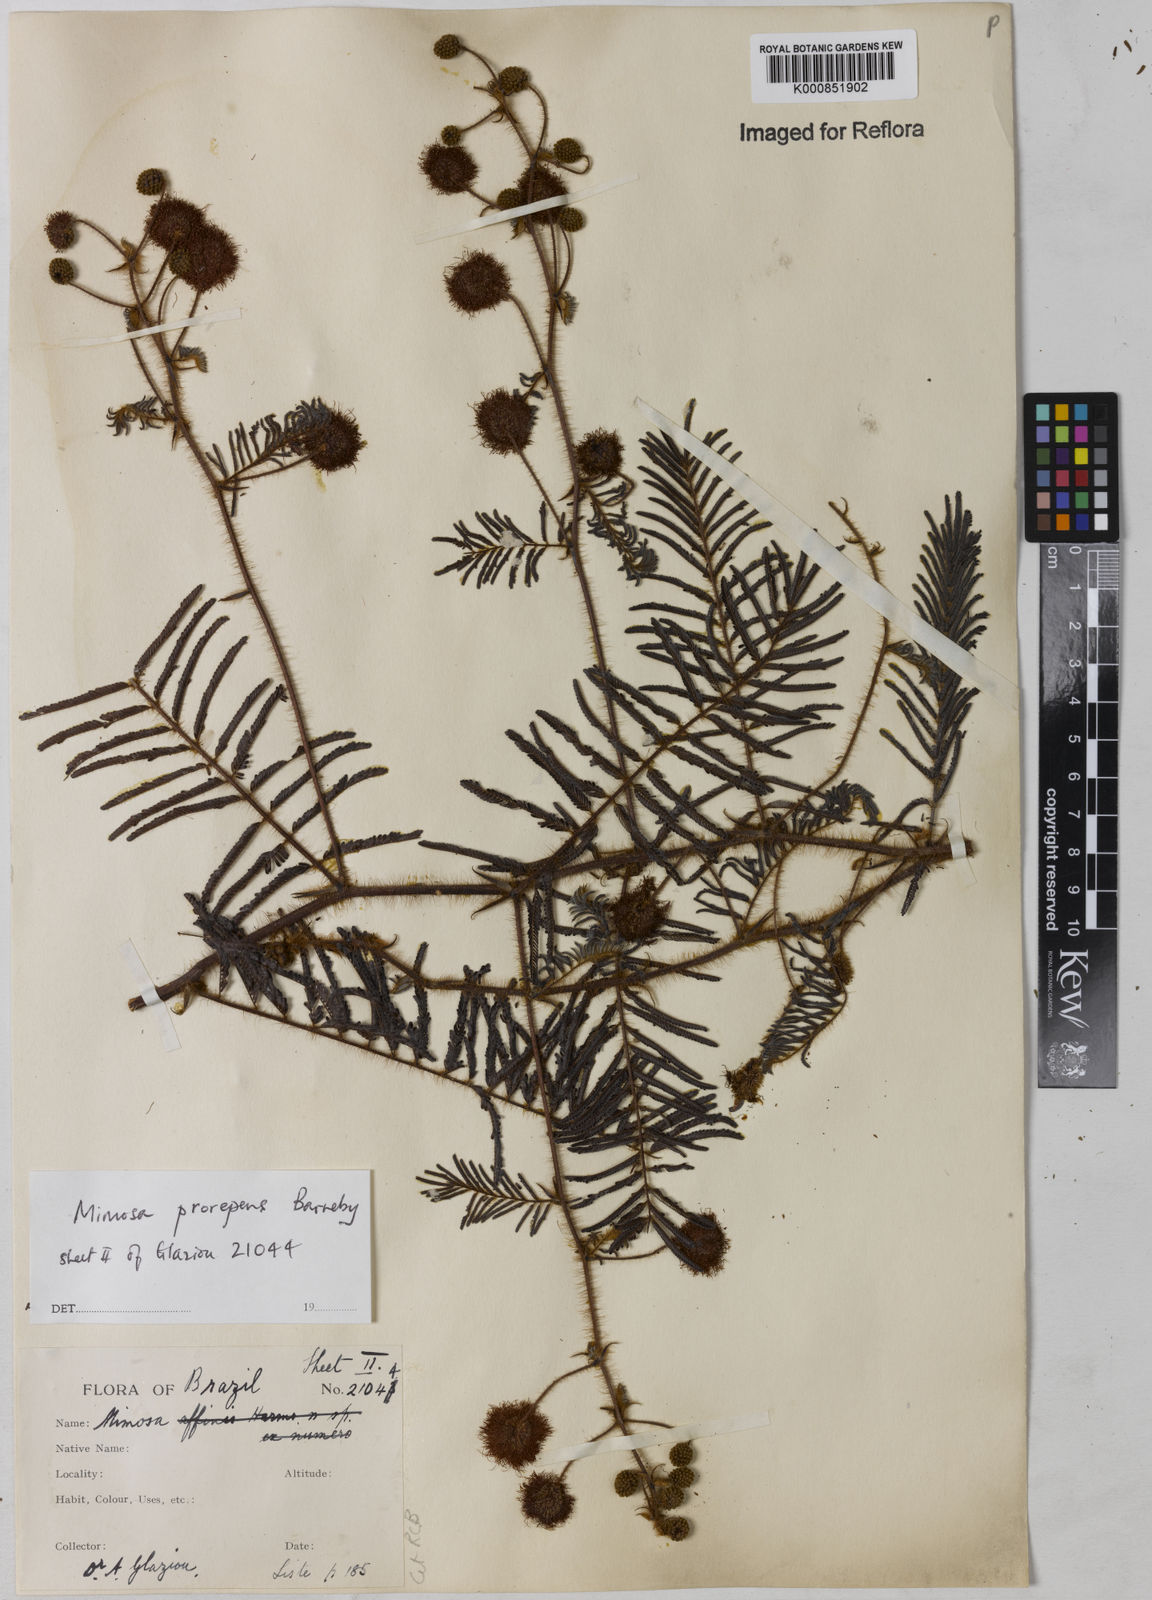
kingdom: Plantae
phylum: Tracheophyta
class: Magnoliopsida
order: Fabales
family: Fabaceae
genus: Mimosa
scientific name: Mimosa prorepens
